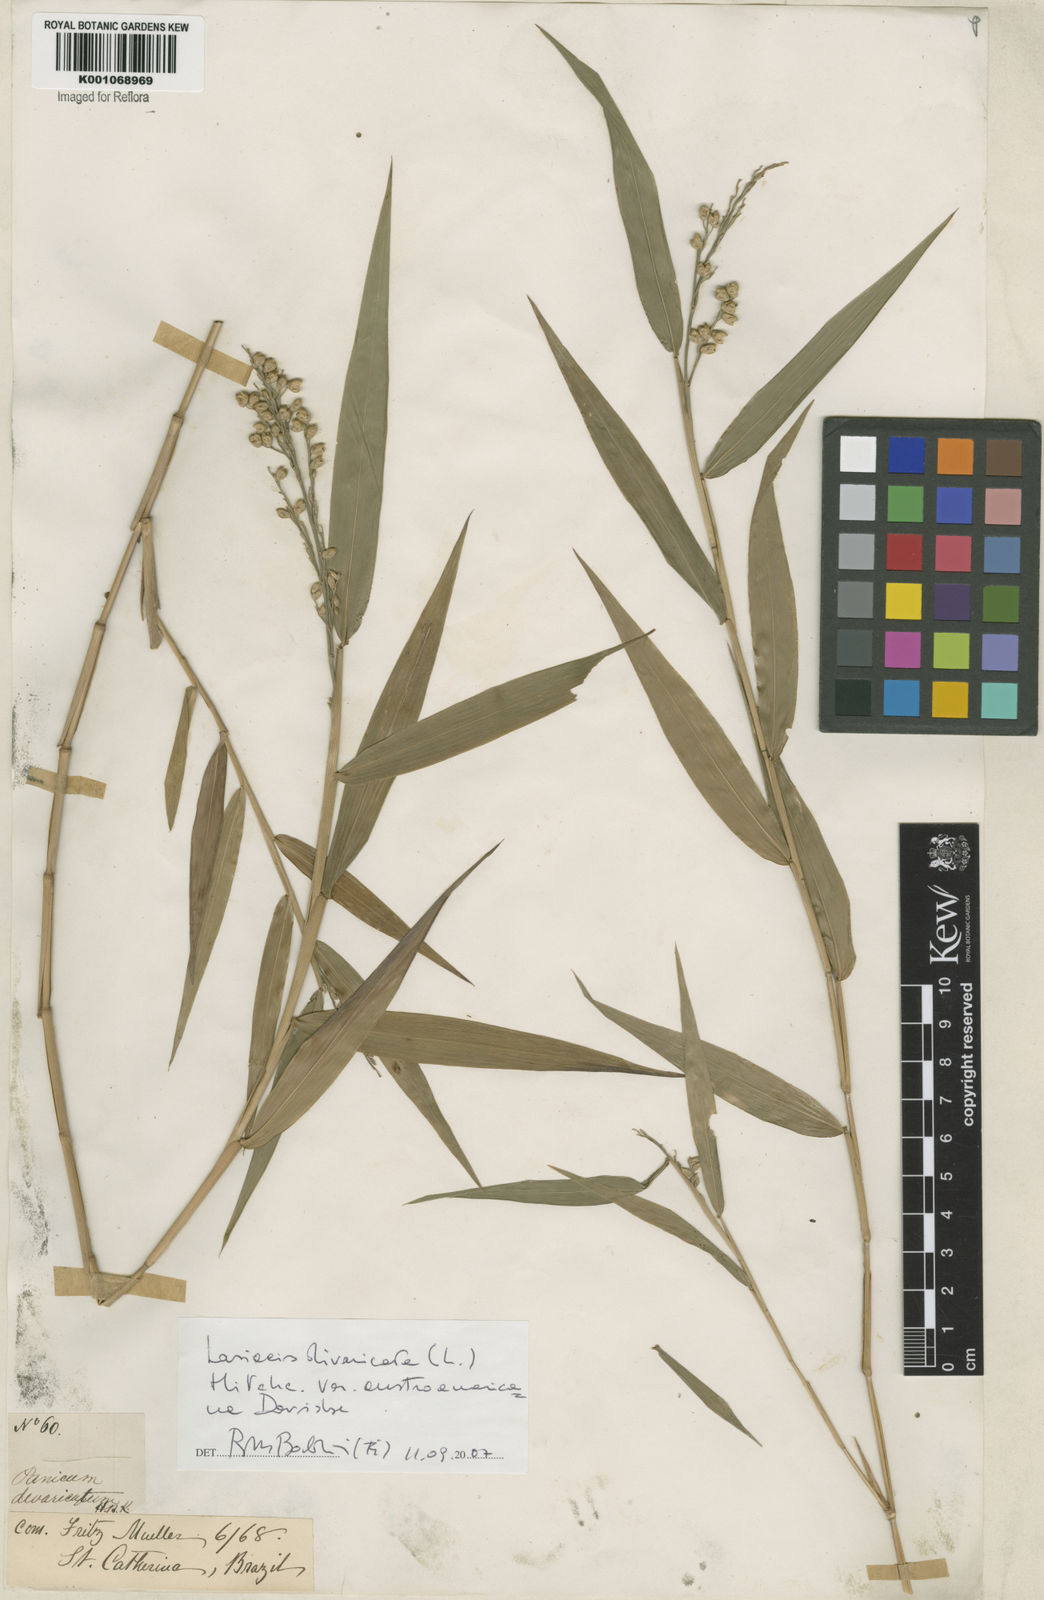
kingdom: Plantae
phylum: Tracheophyta
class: Liliopsida
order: Poales
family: Poaceae
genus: Lasiacis
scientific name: Lasiacis divaricata
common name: Smallcane
